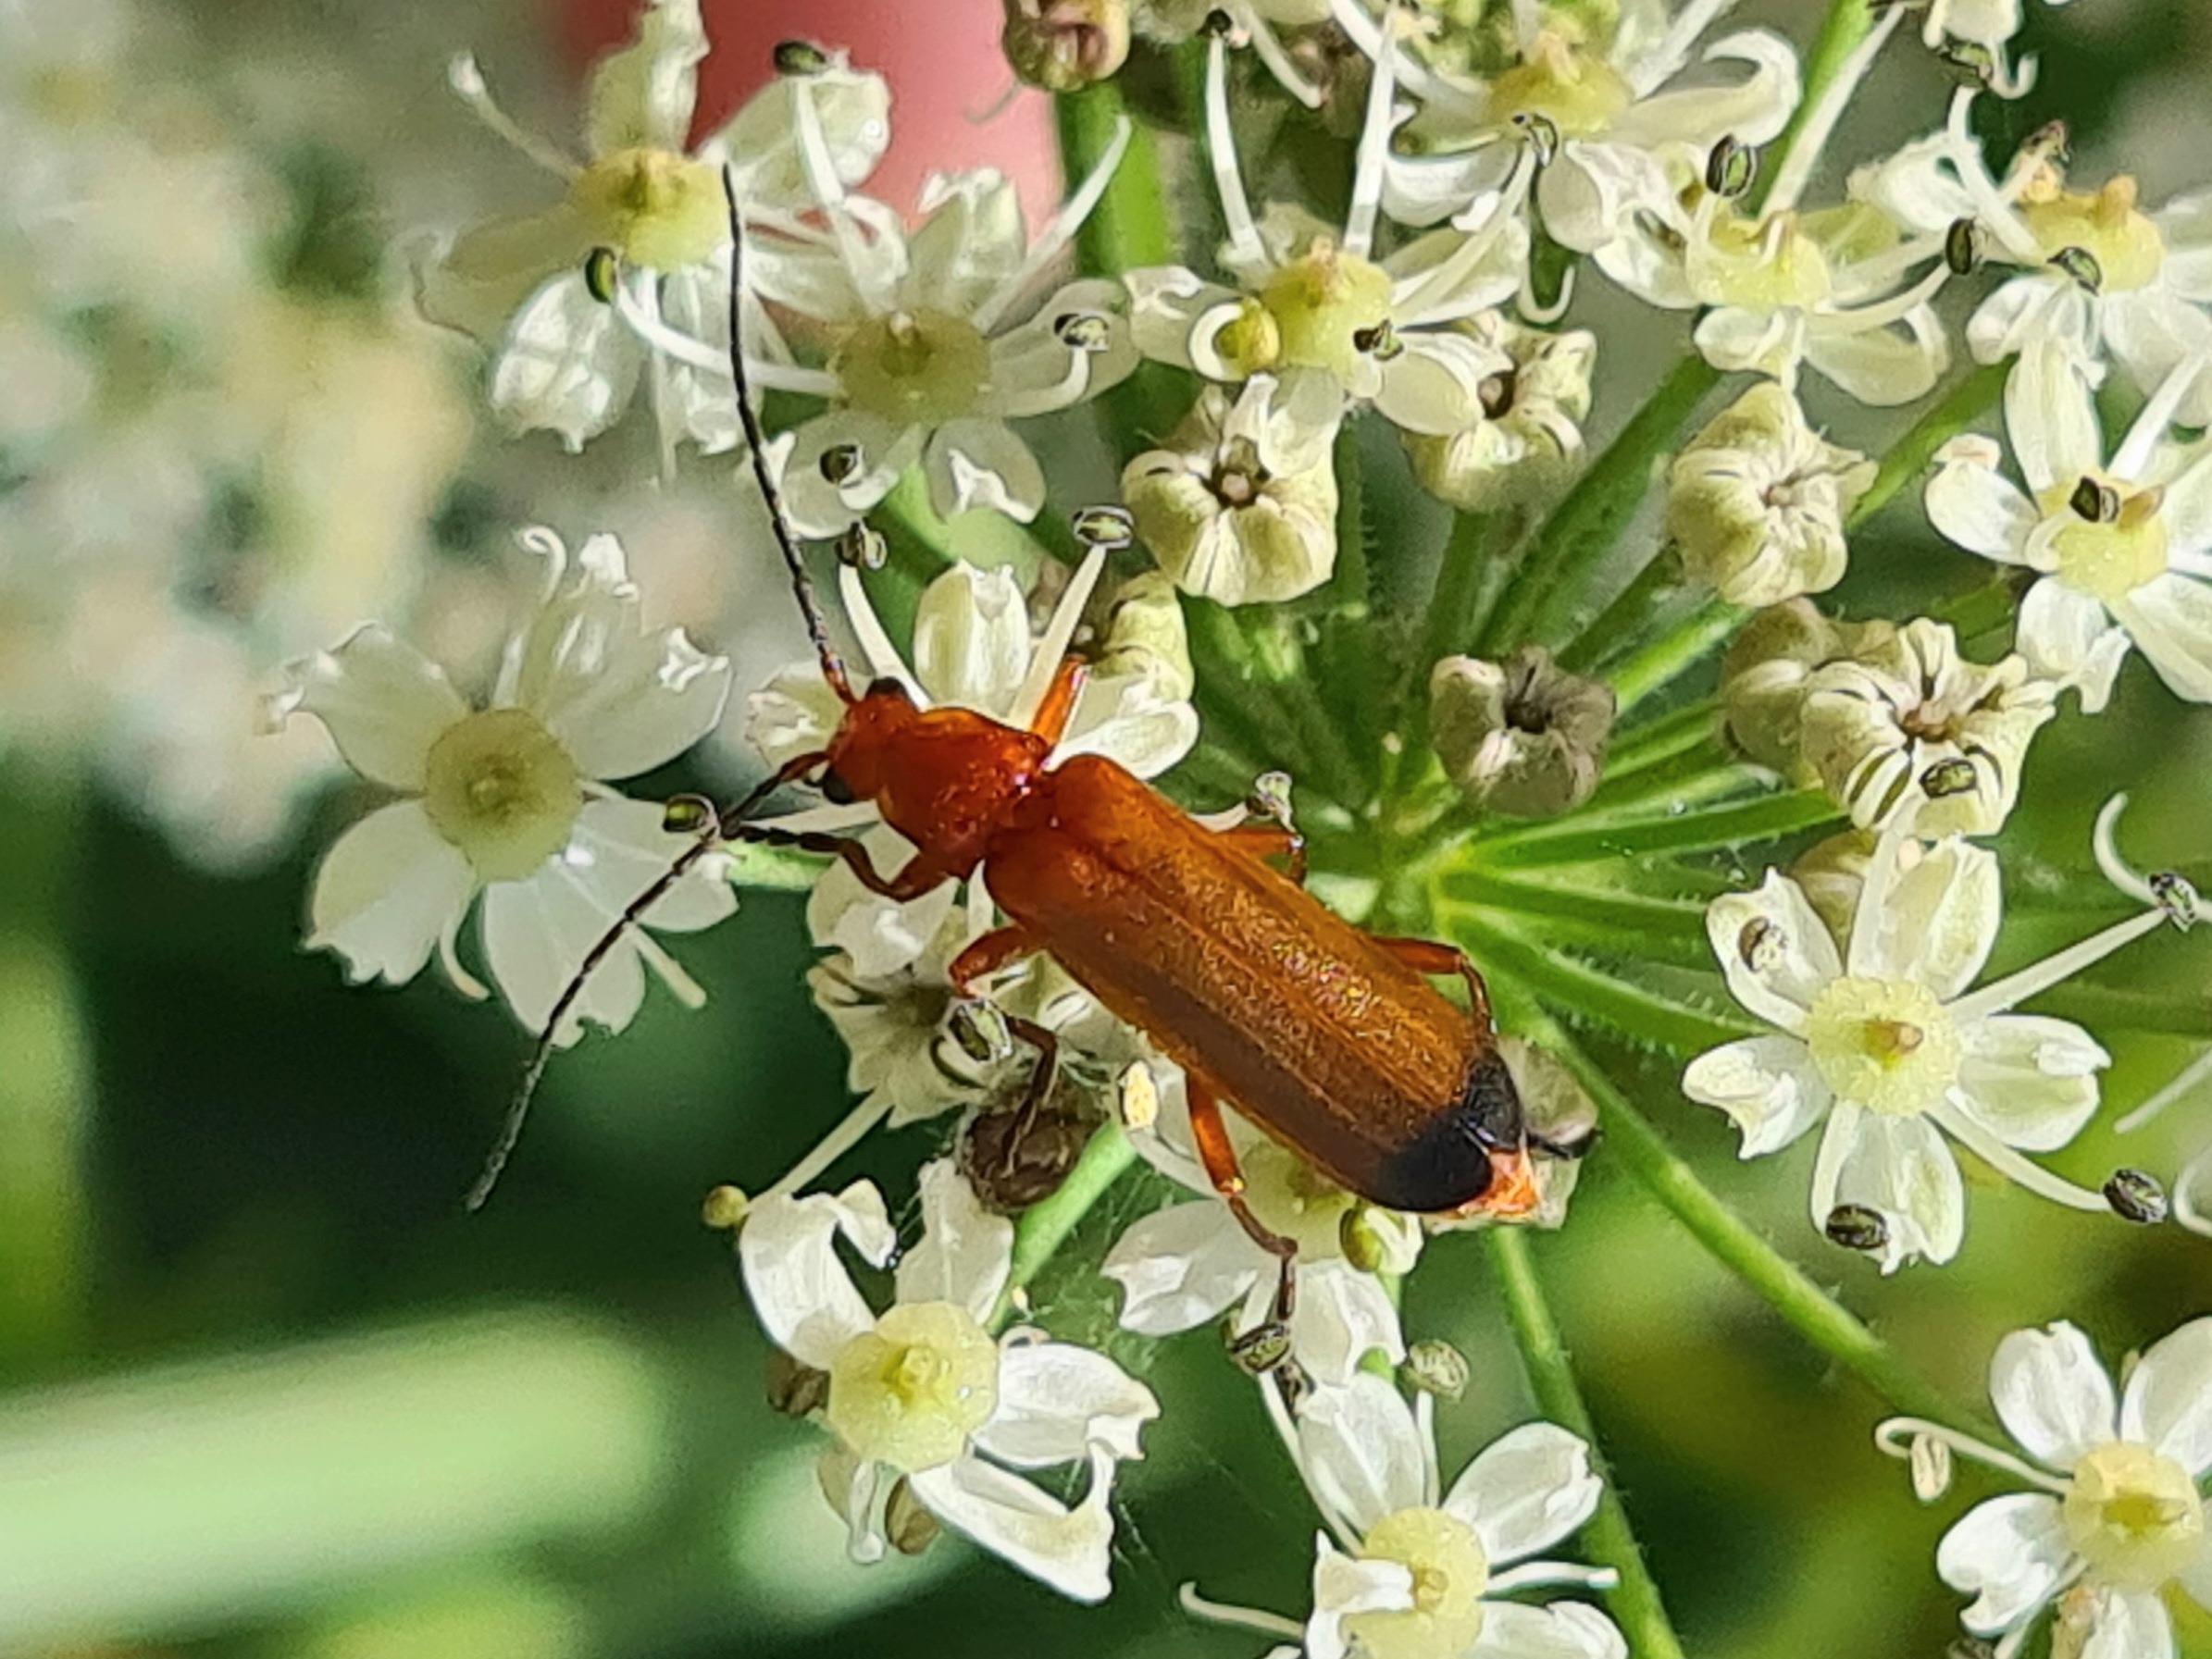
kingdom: Animalia
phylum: Arthropoda
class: Insecta
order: Coleoptera
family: Cantharidae
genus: Rhagonycha
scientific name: Rhagonycha fulva
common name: Præstebille
